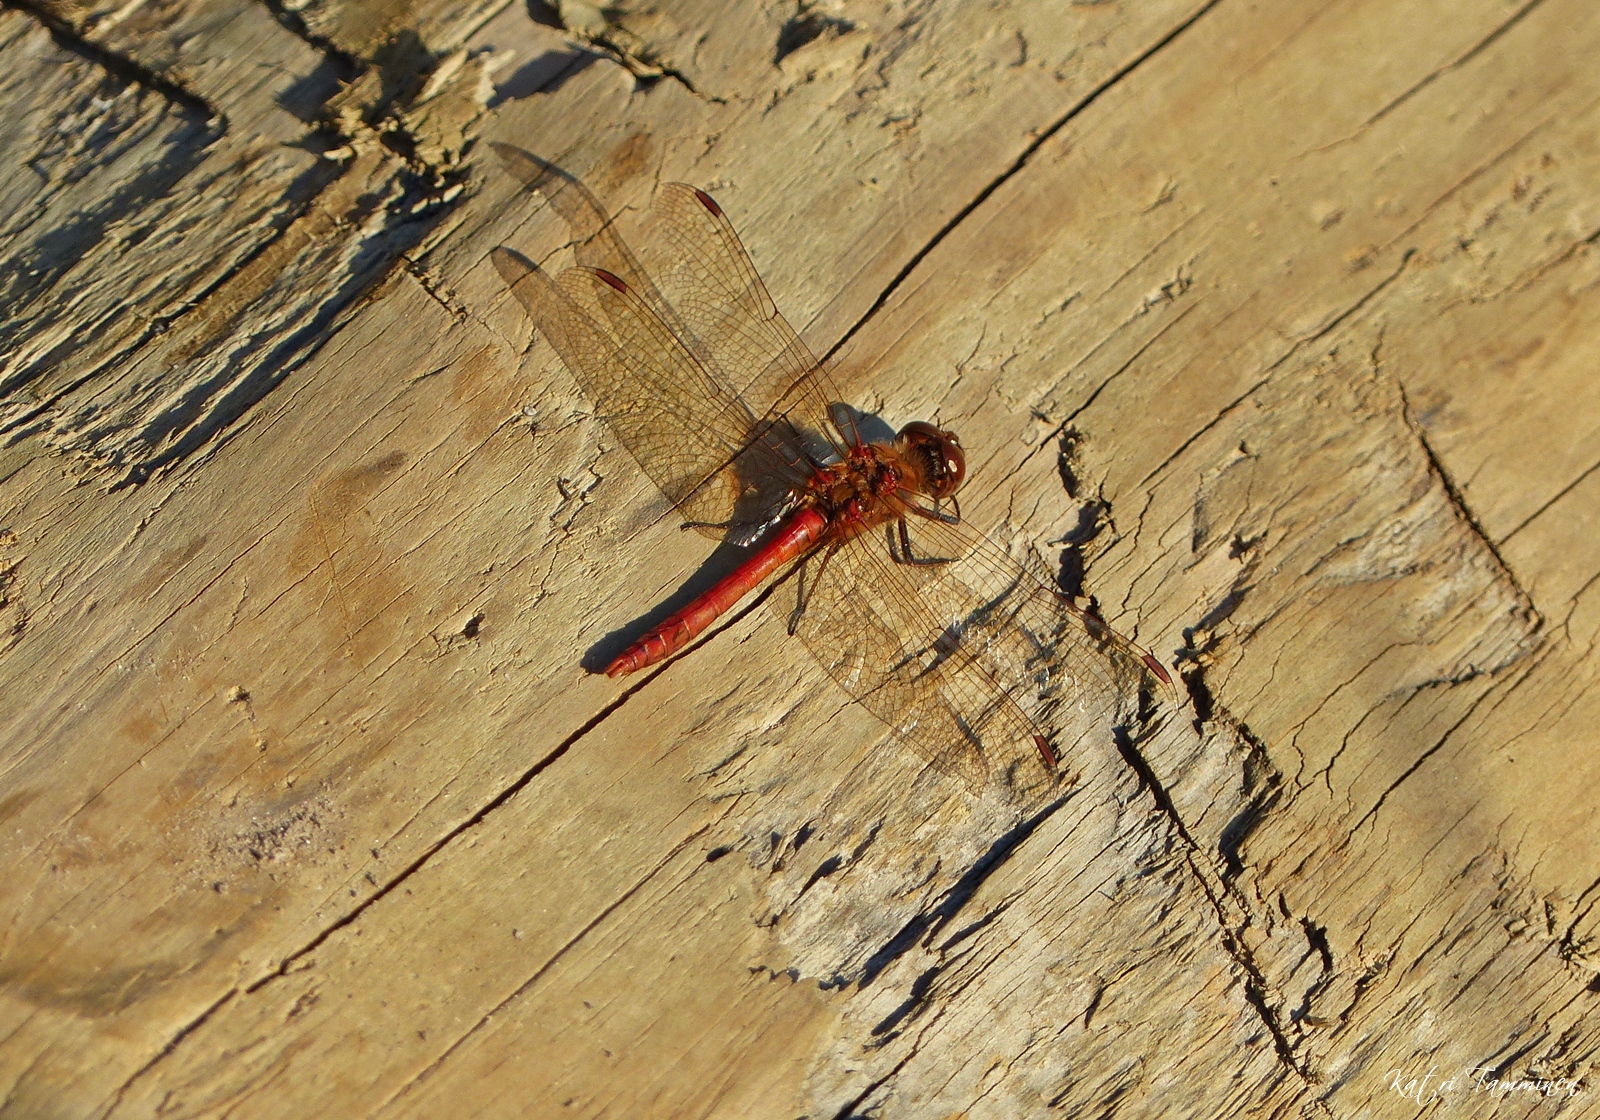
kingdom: Animalia
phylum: Arthropoda
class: Insecta
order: Odonata
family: Libellulidae
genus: Sympetrum
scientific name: Sympetrum vulgatum
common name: Vagrant darter
